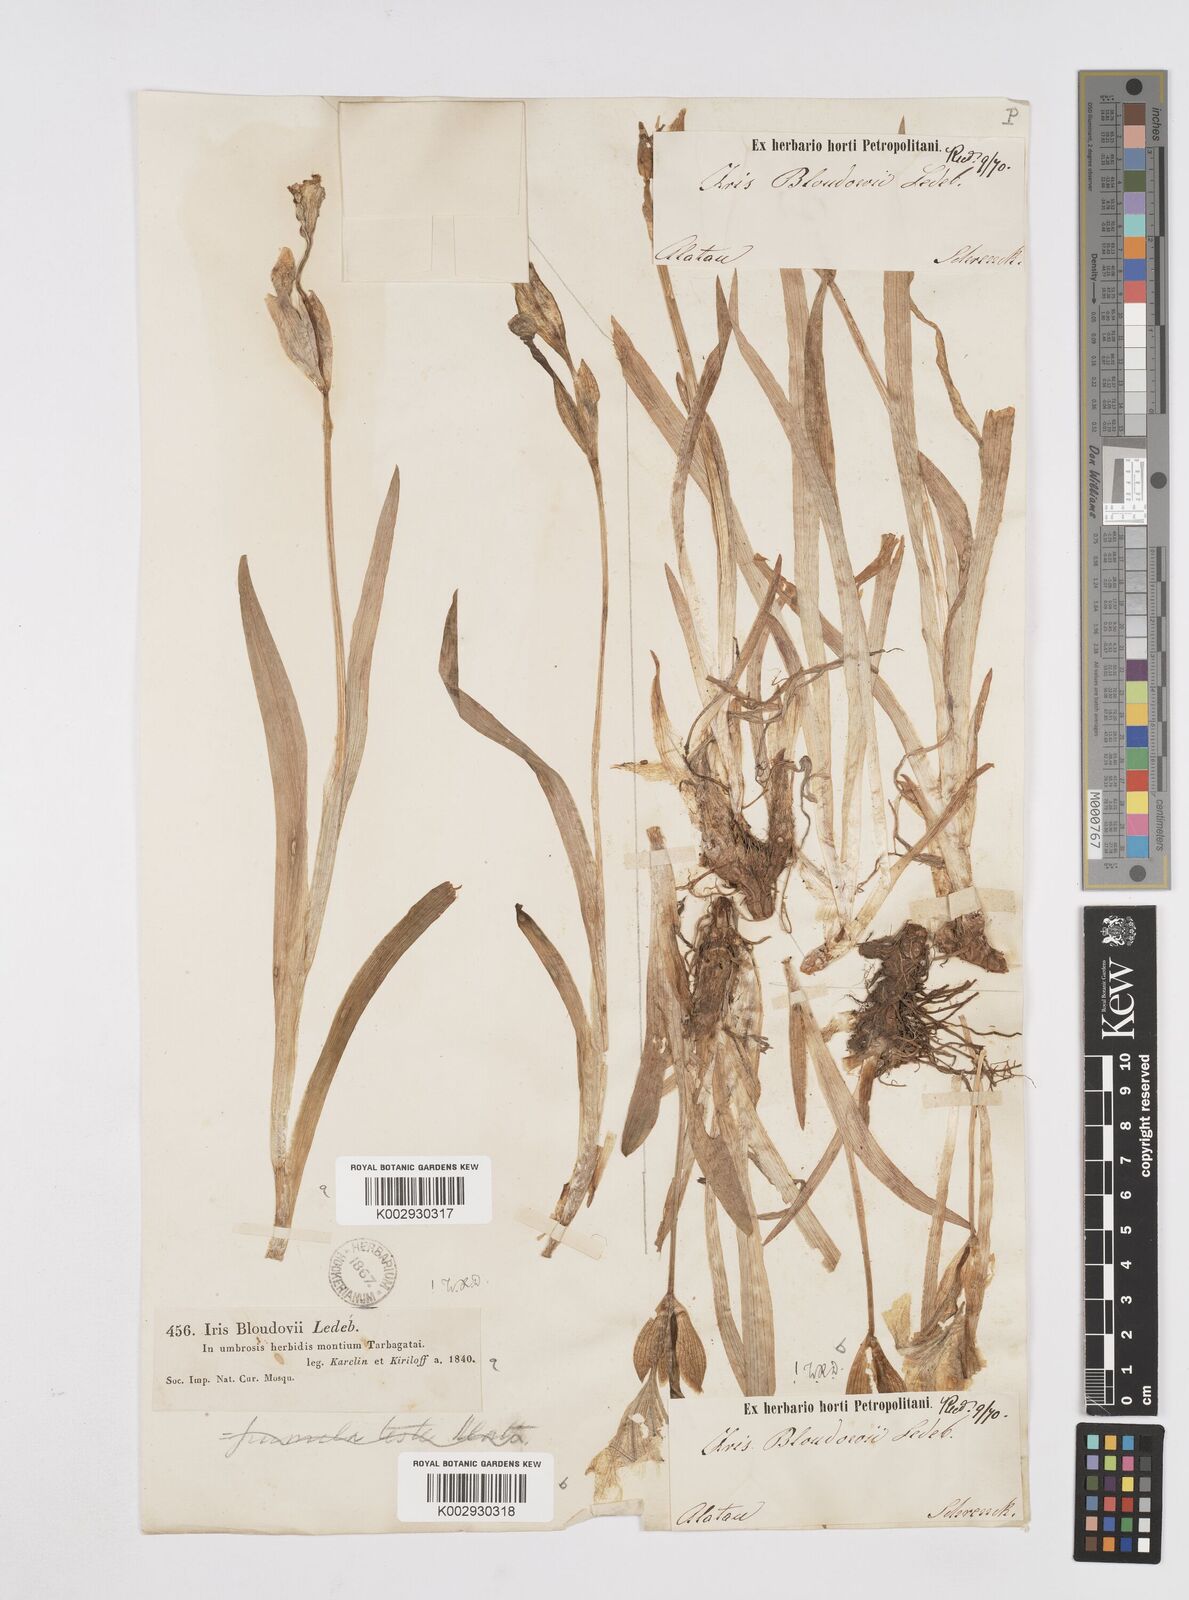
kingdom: Plantae
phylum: Tracheophyta
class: Liliopsida
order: Asparagales
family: Iridaceae
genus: Iris
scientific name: Iris bloudowii
